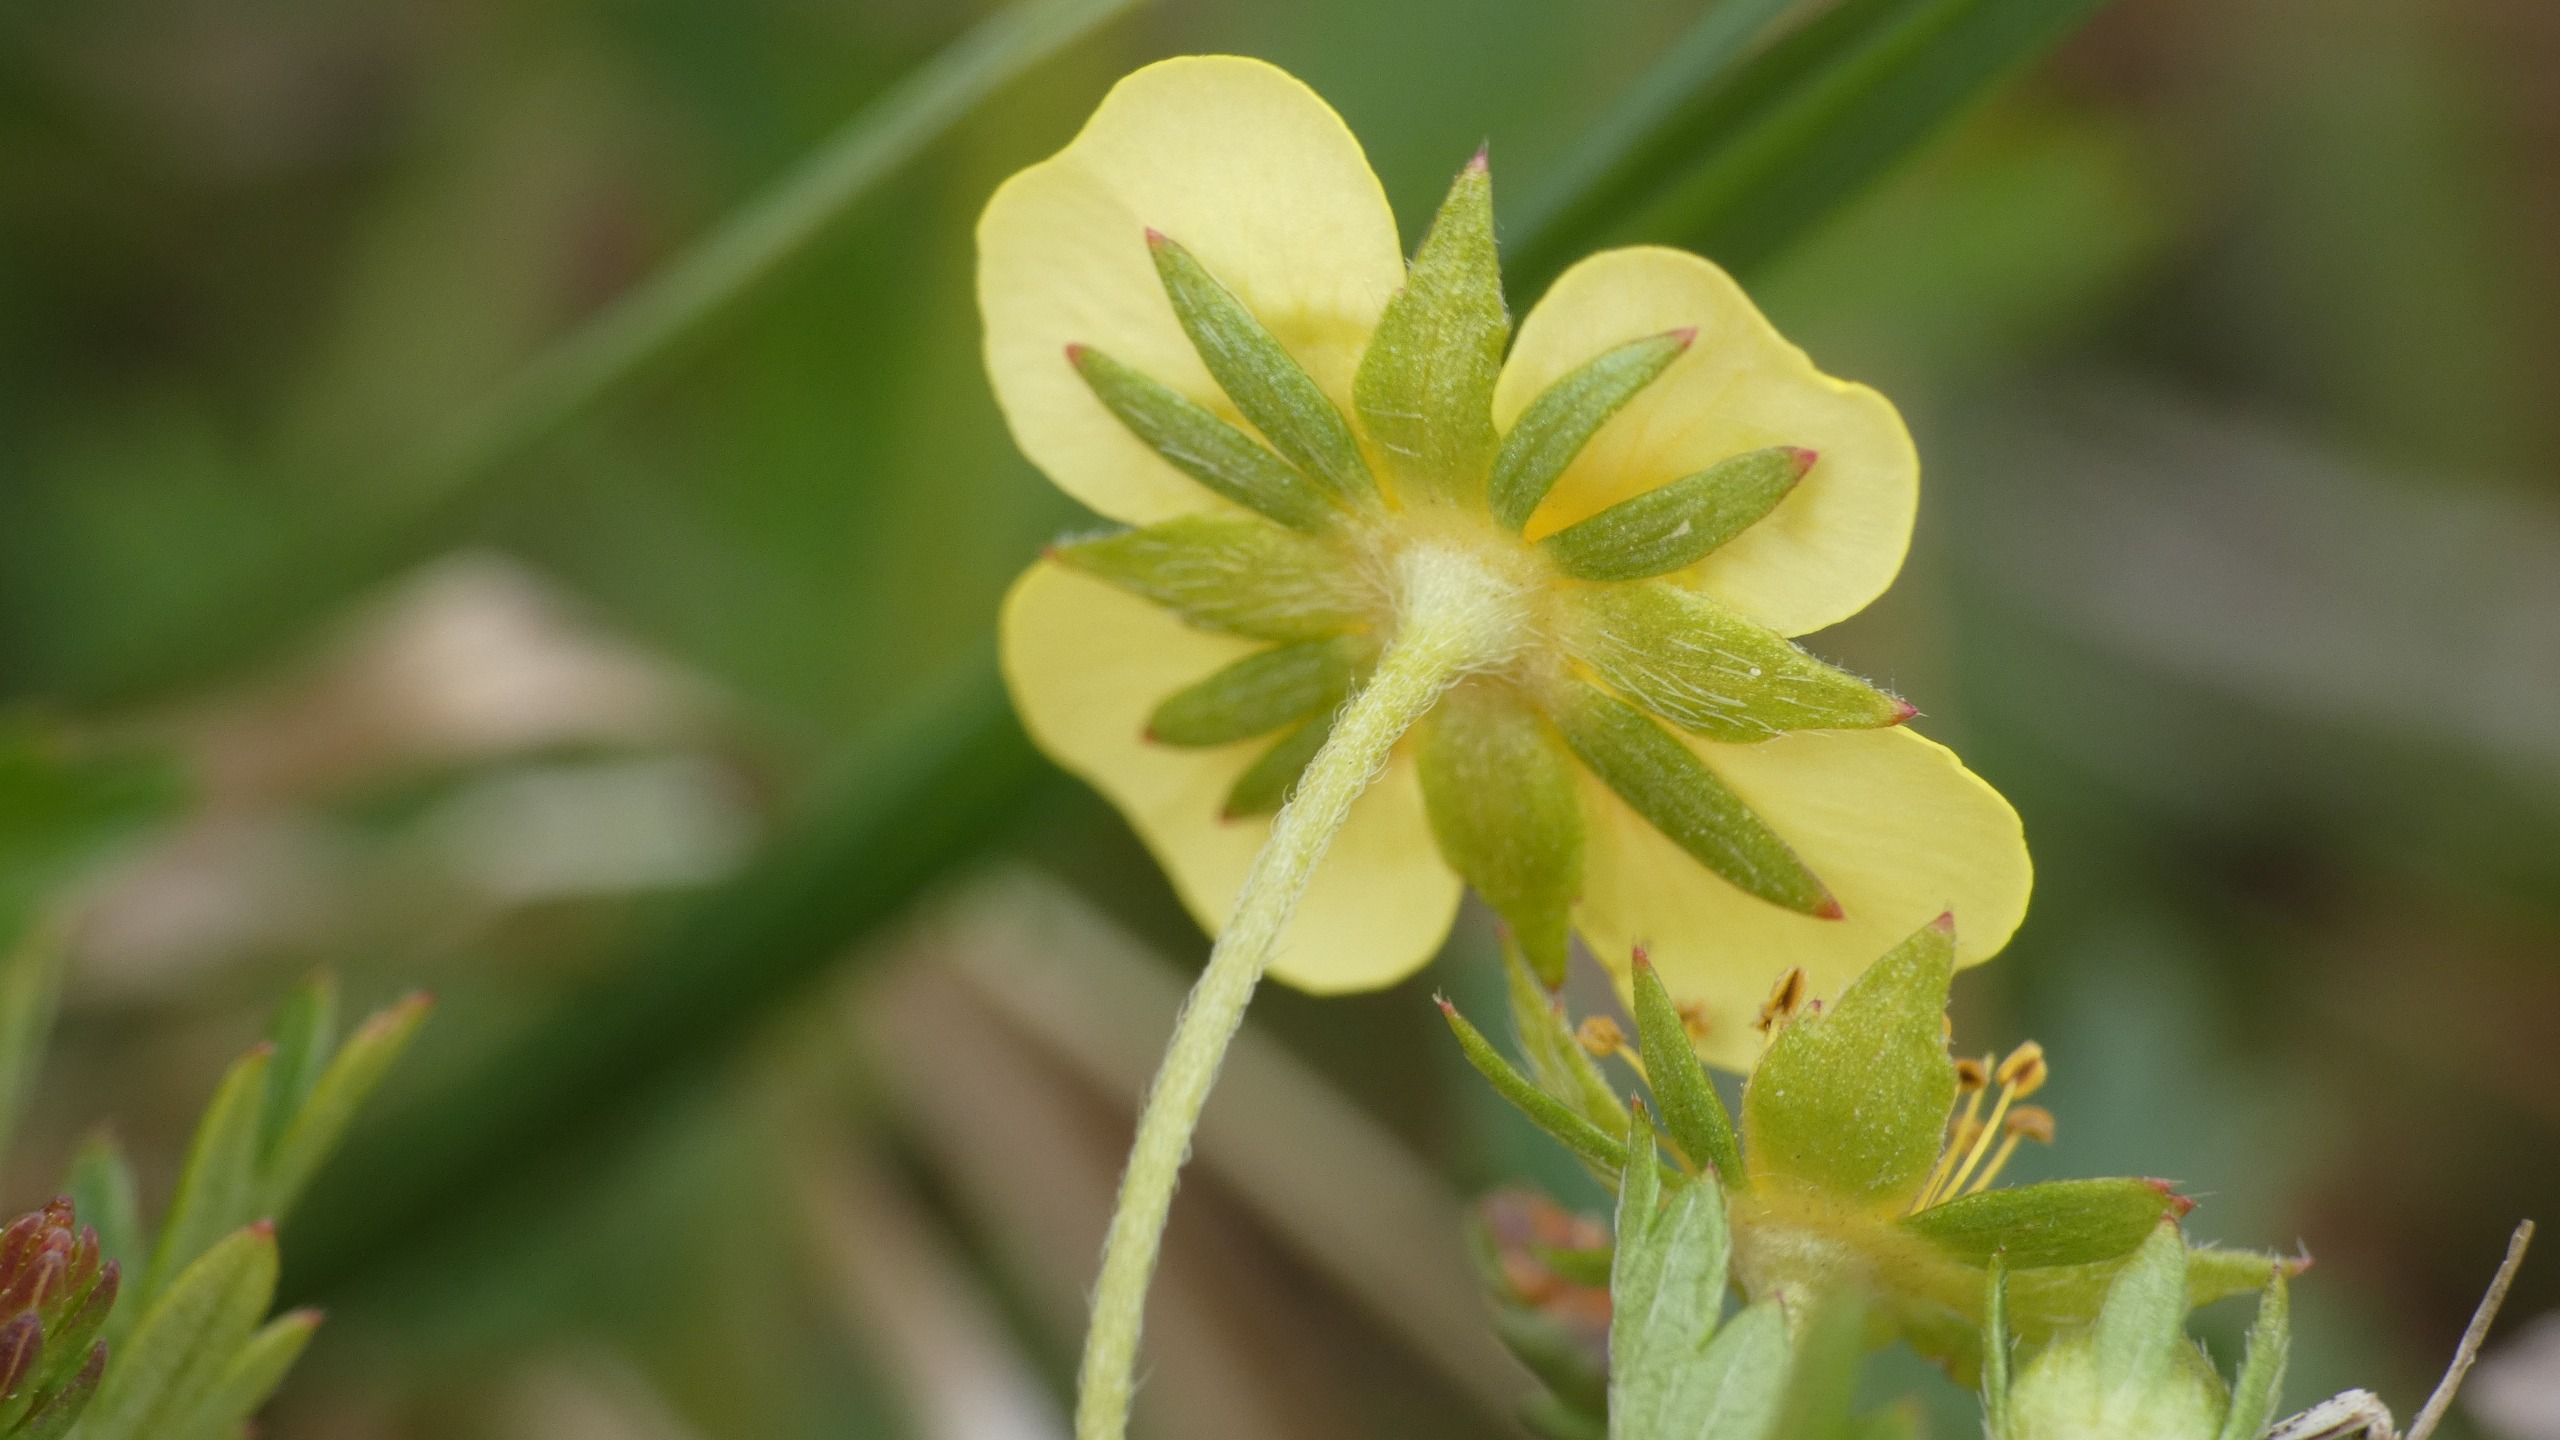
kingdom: Plantae
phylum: Tracheophyta
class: Magnoliopsida
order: Rosales
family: Rosaceae
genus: Potentilla
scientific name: Potentilla erecta
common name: Tormentil
